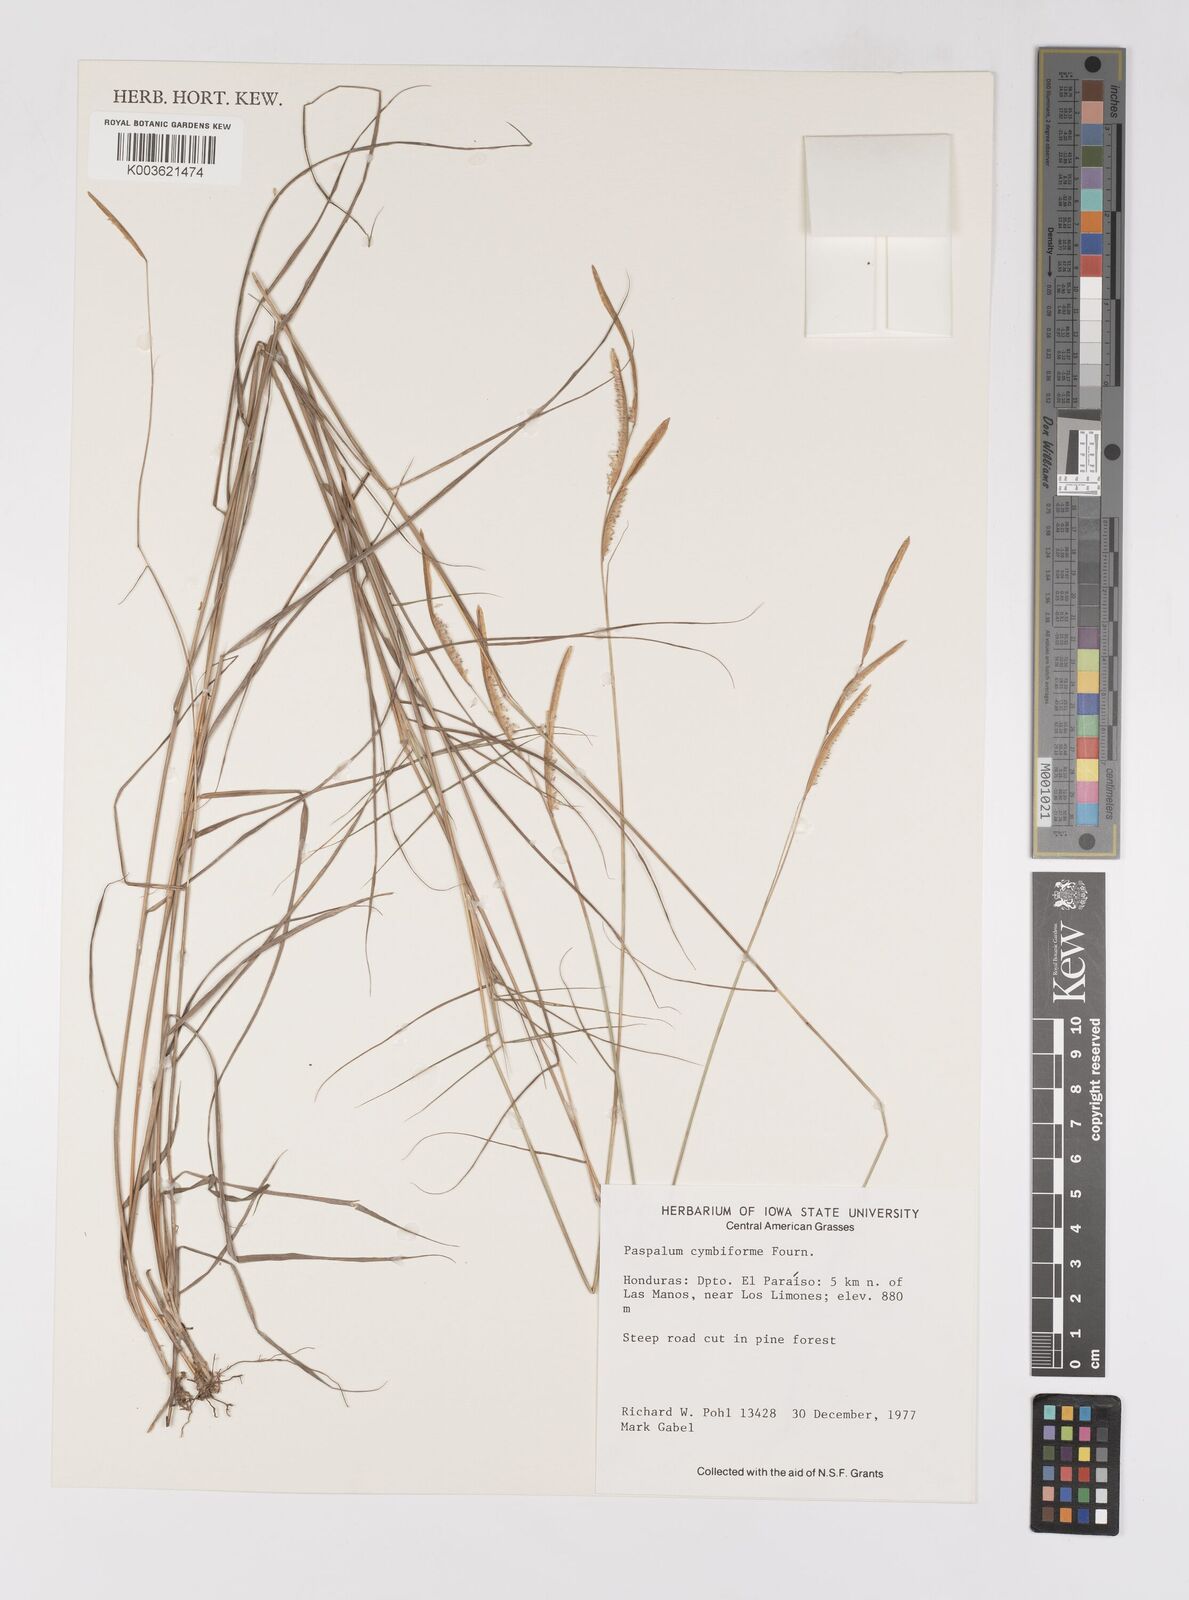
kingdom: Plantae
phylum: Tracheophyta
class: Liliopsida
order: Poales
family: Poaceae
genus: Paspalum
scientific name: Paspalum cymbiforme
